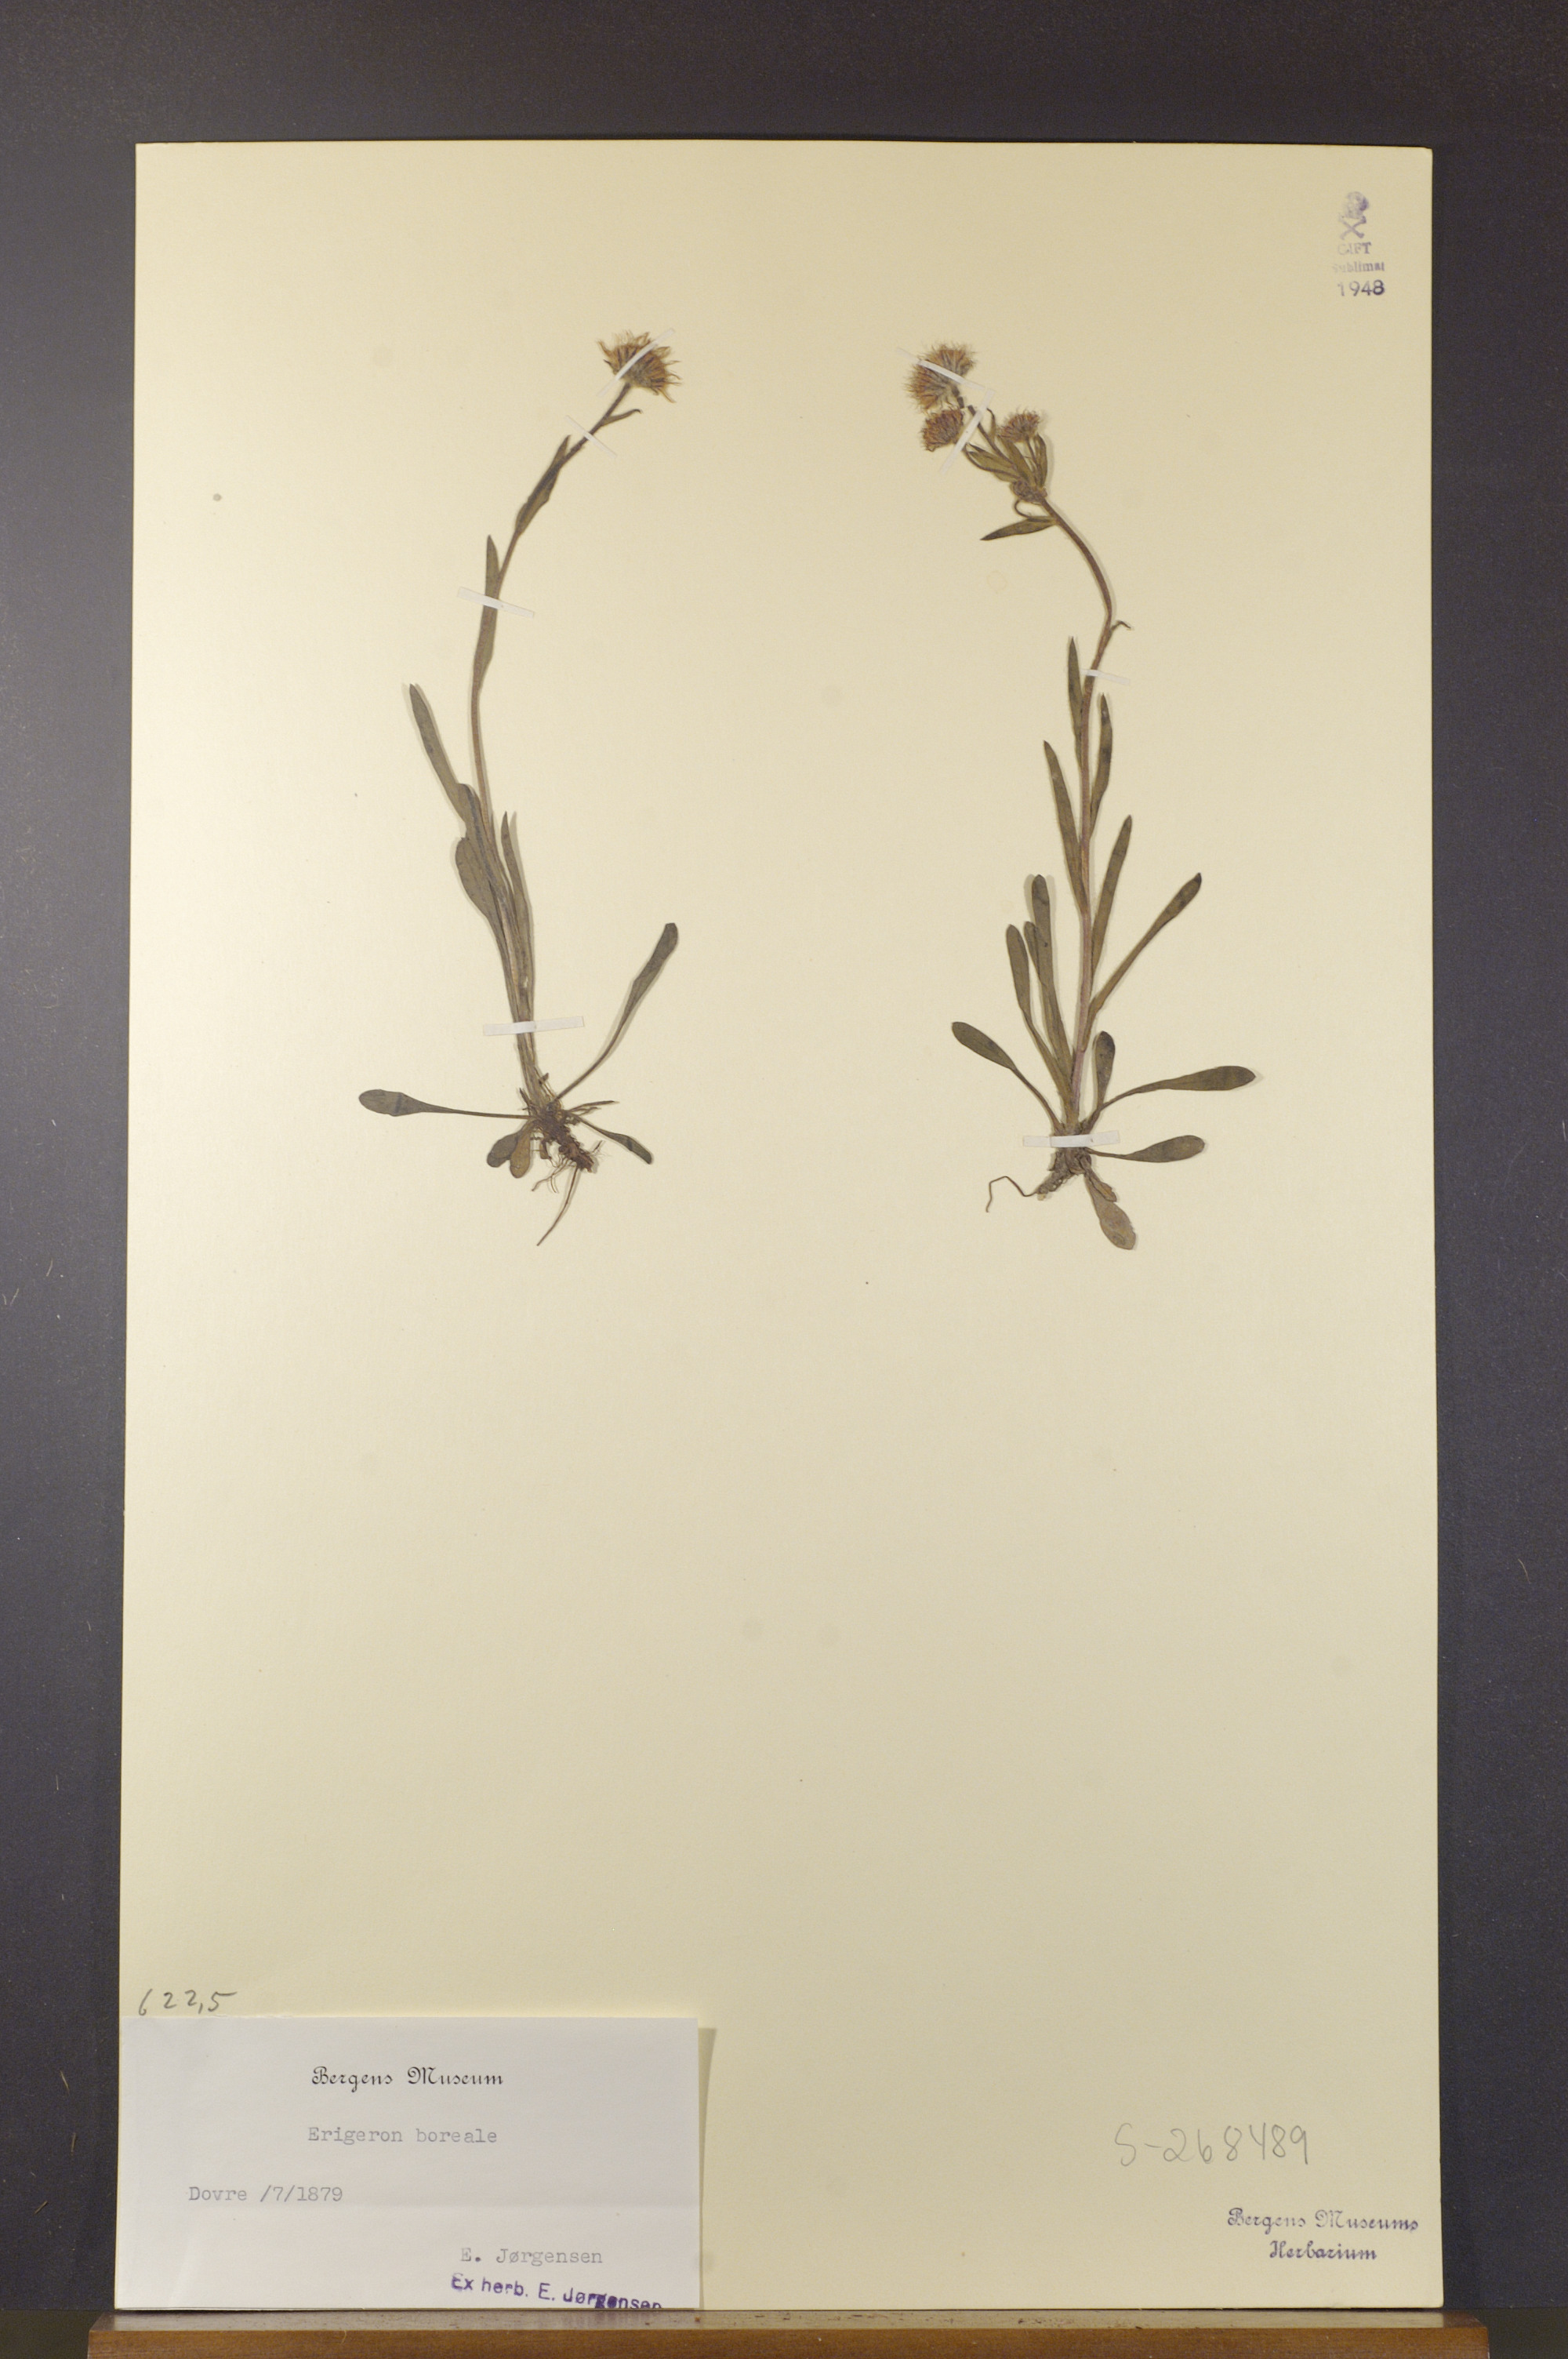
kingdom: Plantae
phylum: Tracheophyta
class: Magnoliopsida
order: Asterales
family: Asteraceae
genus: Erigeron
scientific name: Erigeron borealis
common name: Alpine fleabane
